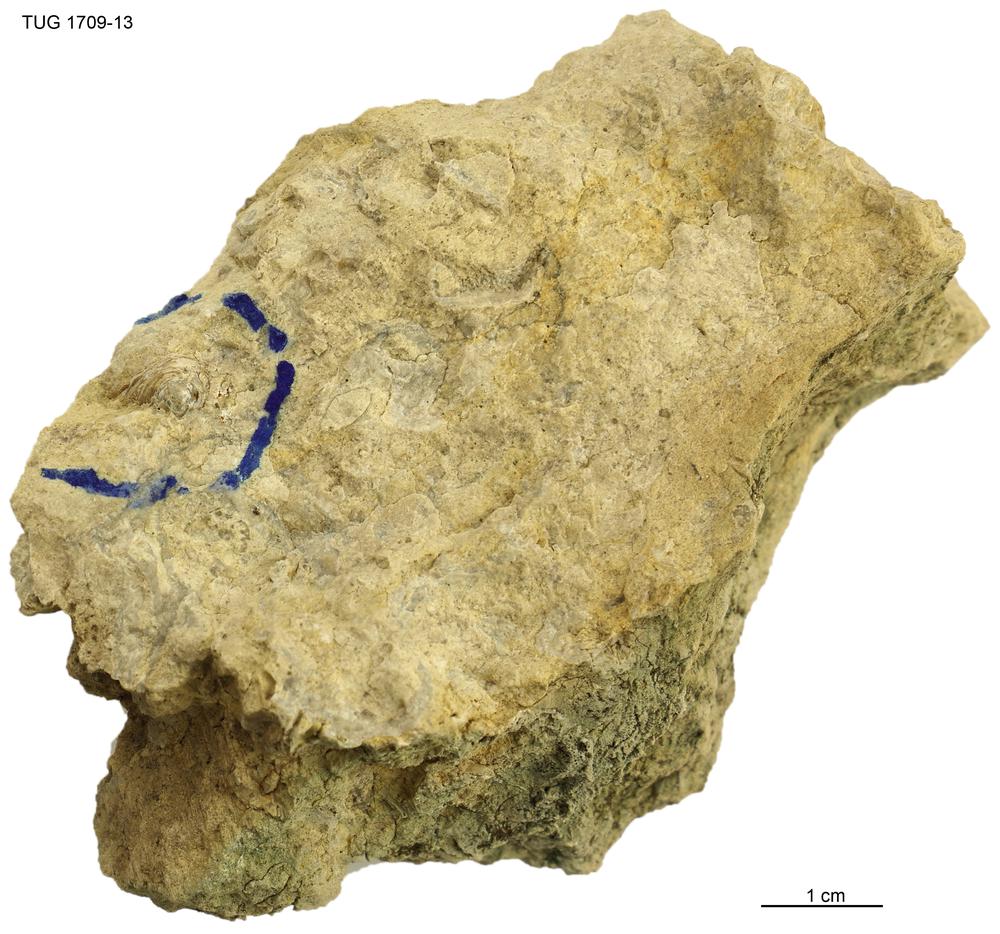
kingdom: Animalia
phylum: Mollusca
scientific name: Mollusca
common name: Mollusca
